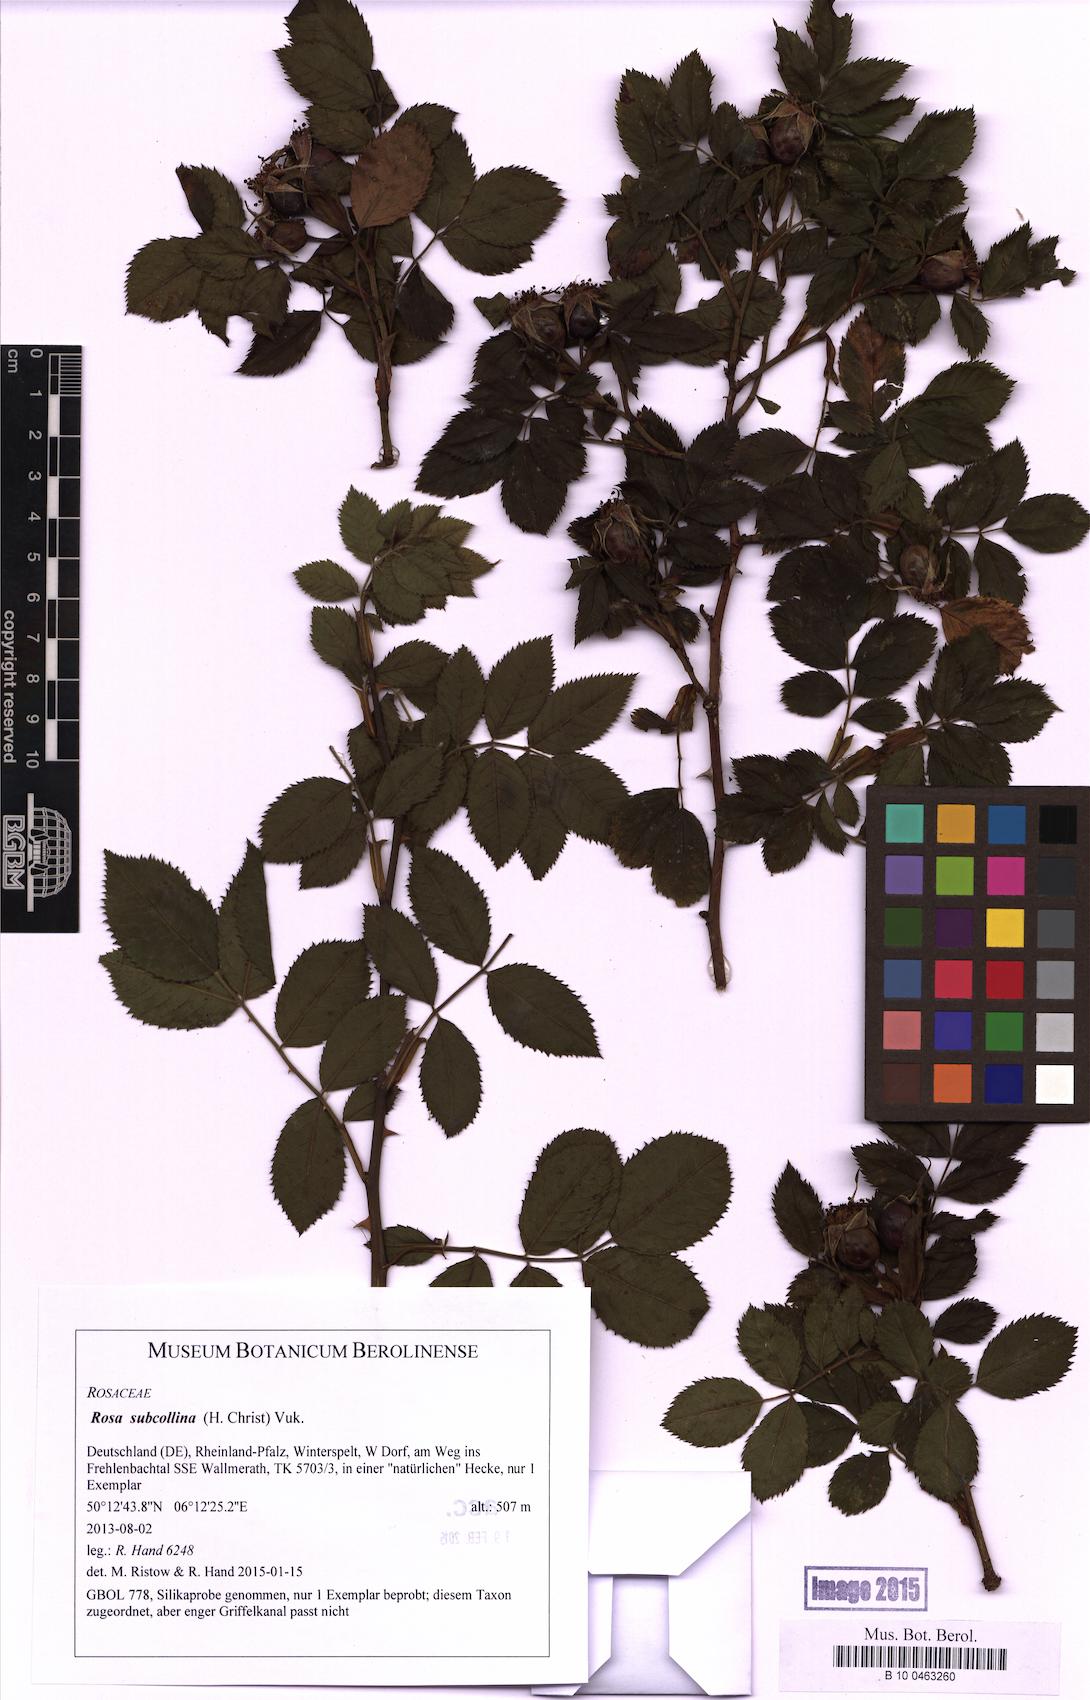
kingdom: Plantae
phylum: Tracheophyta
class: Magnoliopsida
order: Rosales
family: Rosaceae
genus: Rosa
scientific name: Rosa subcollina
